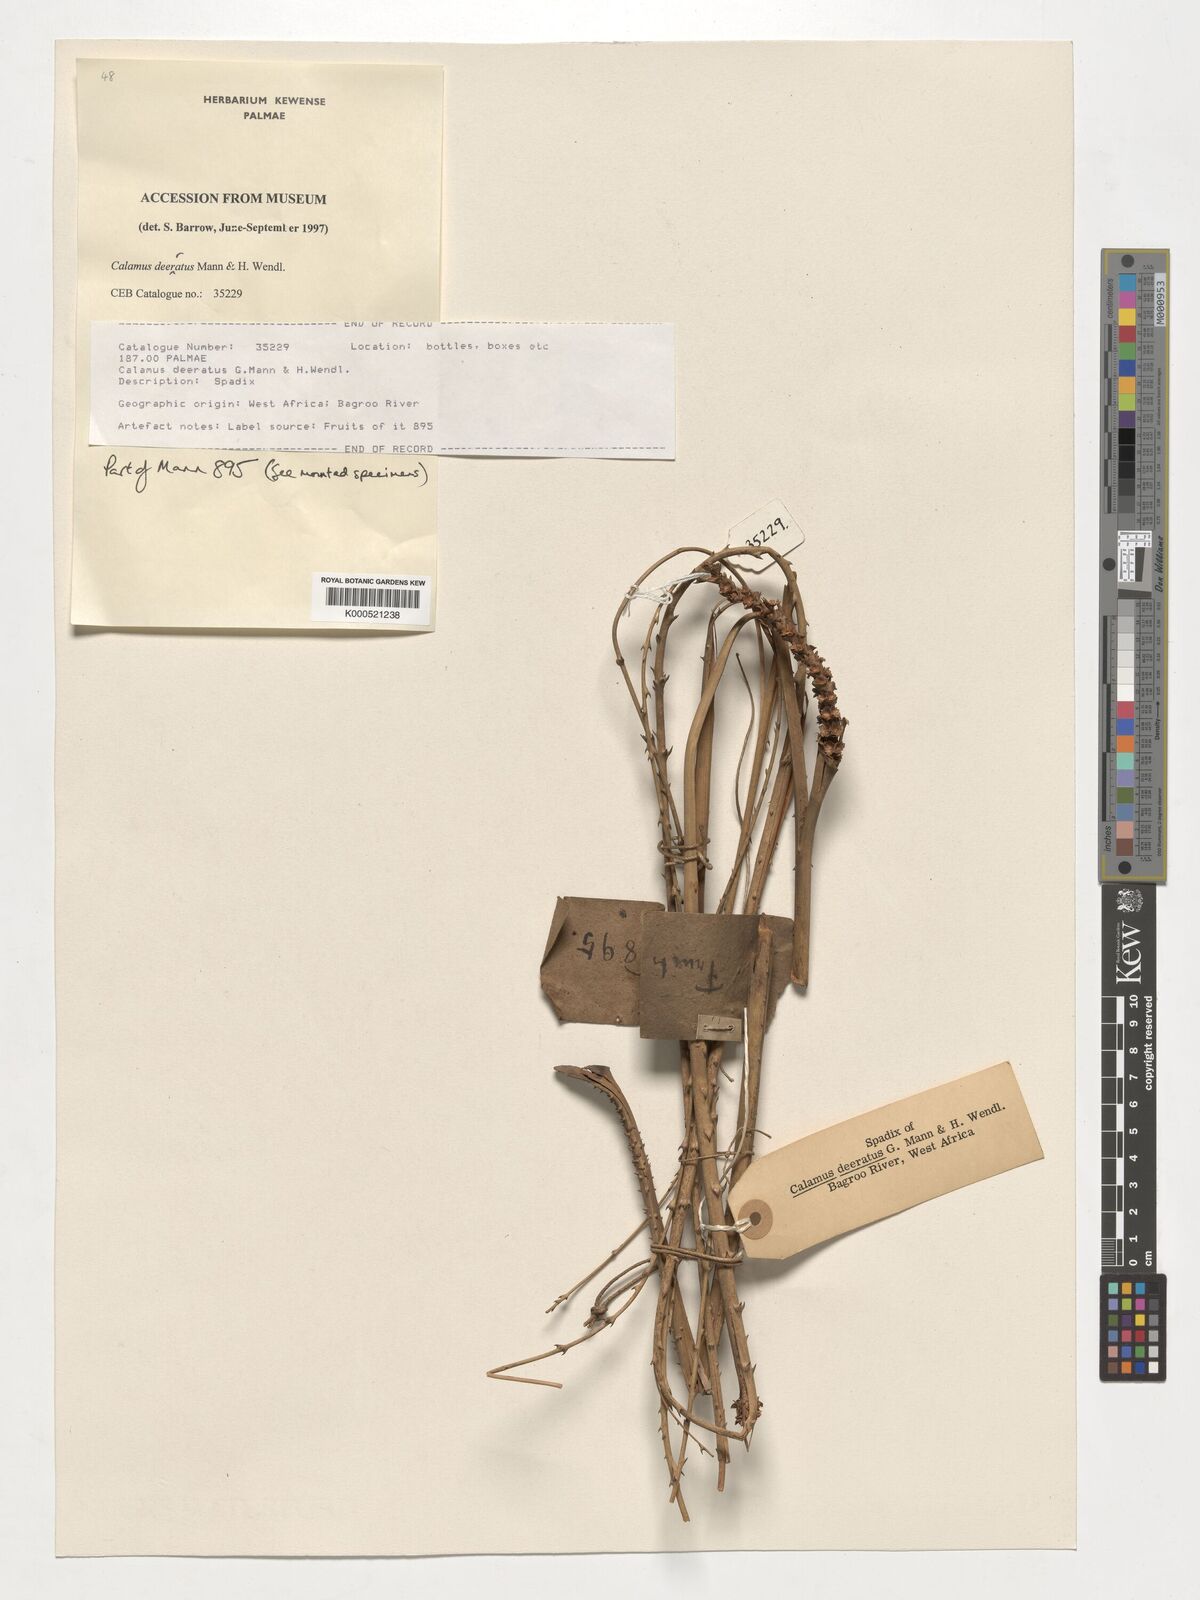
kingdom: Plantae
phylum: Tracheophyta
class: Liliopsida
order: Arecales
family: Arecaceae
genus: Calamus
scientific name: Calamus deerratus
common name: Rattan
